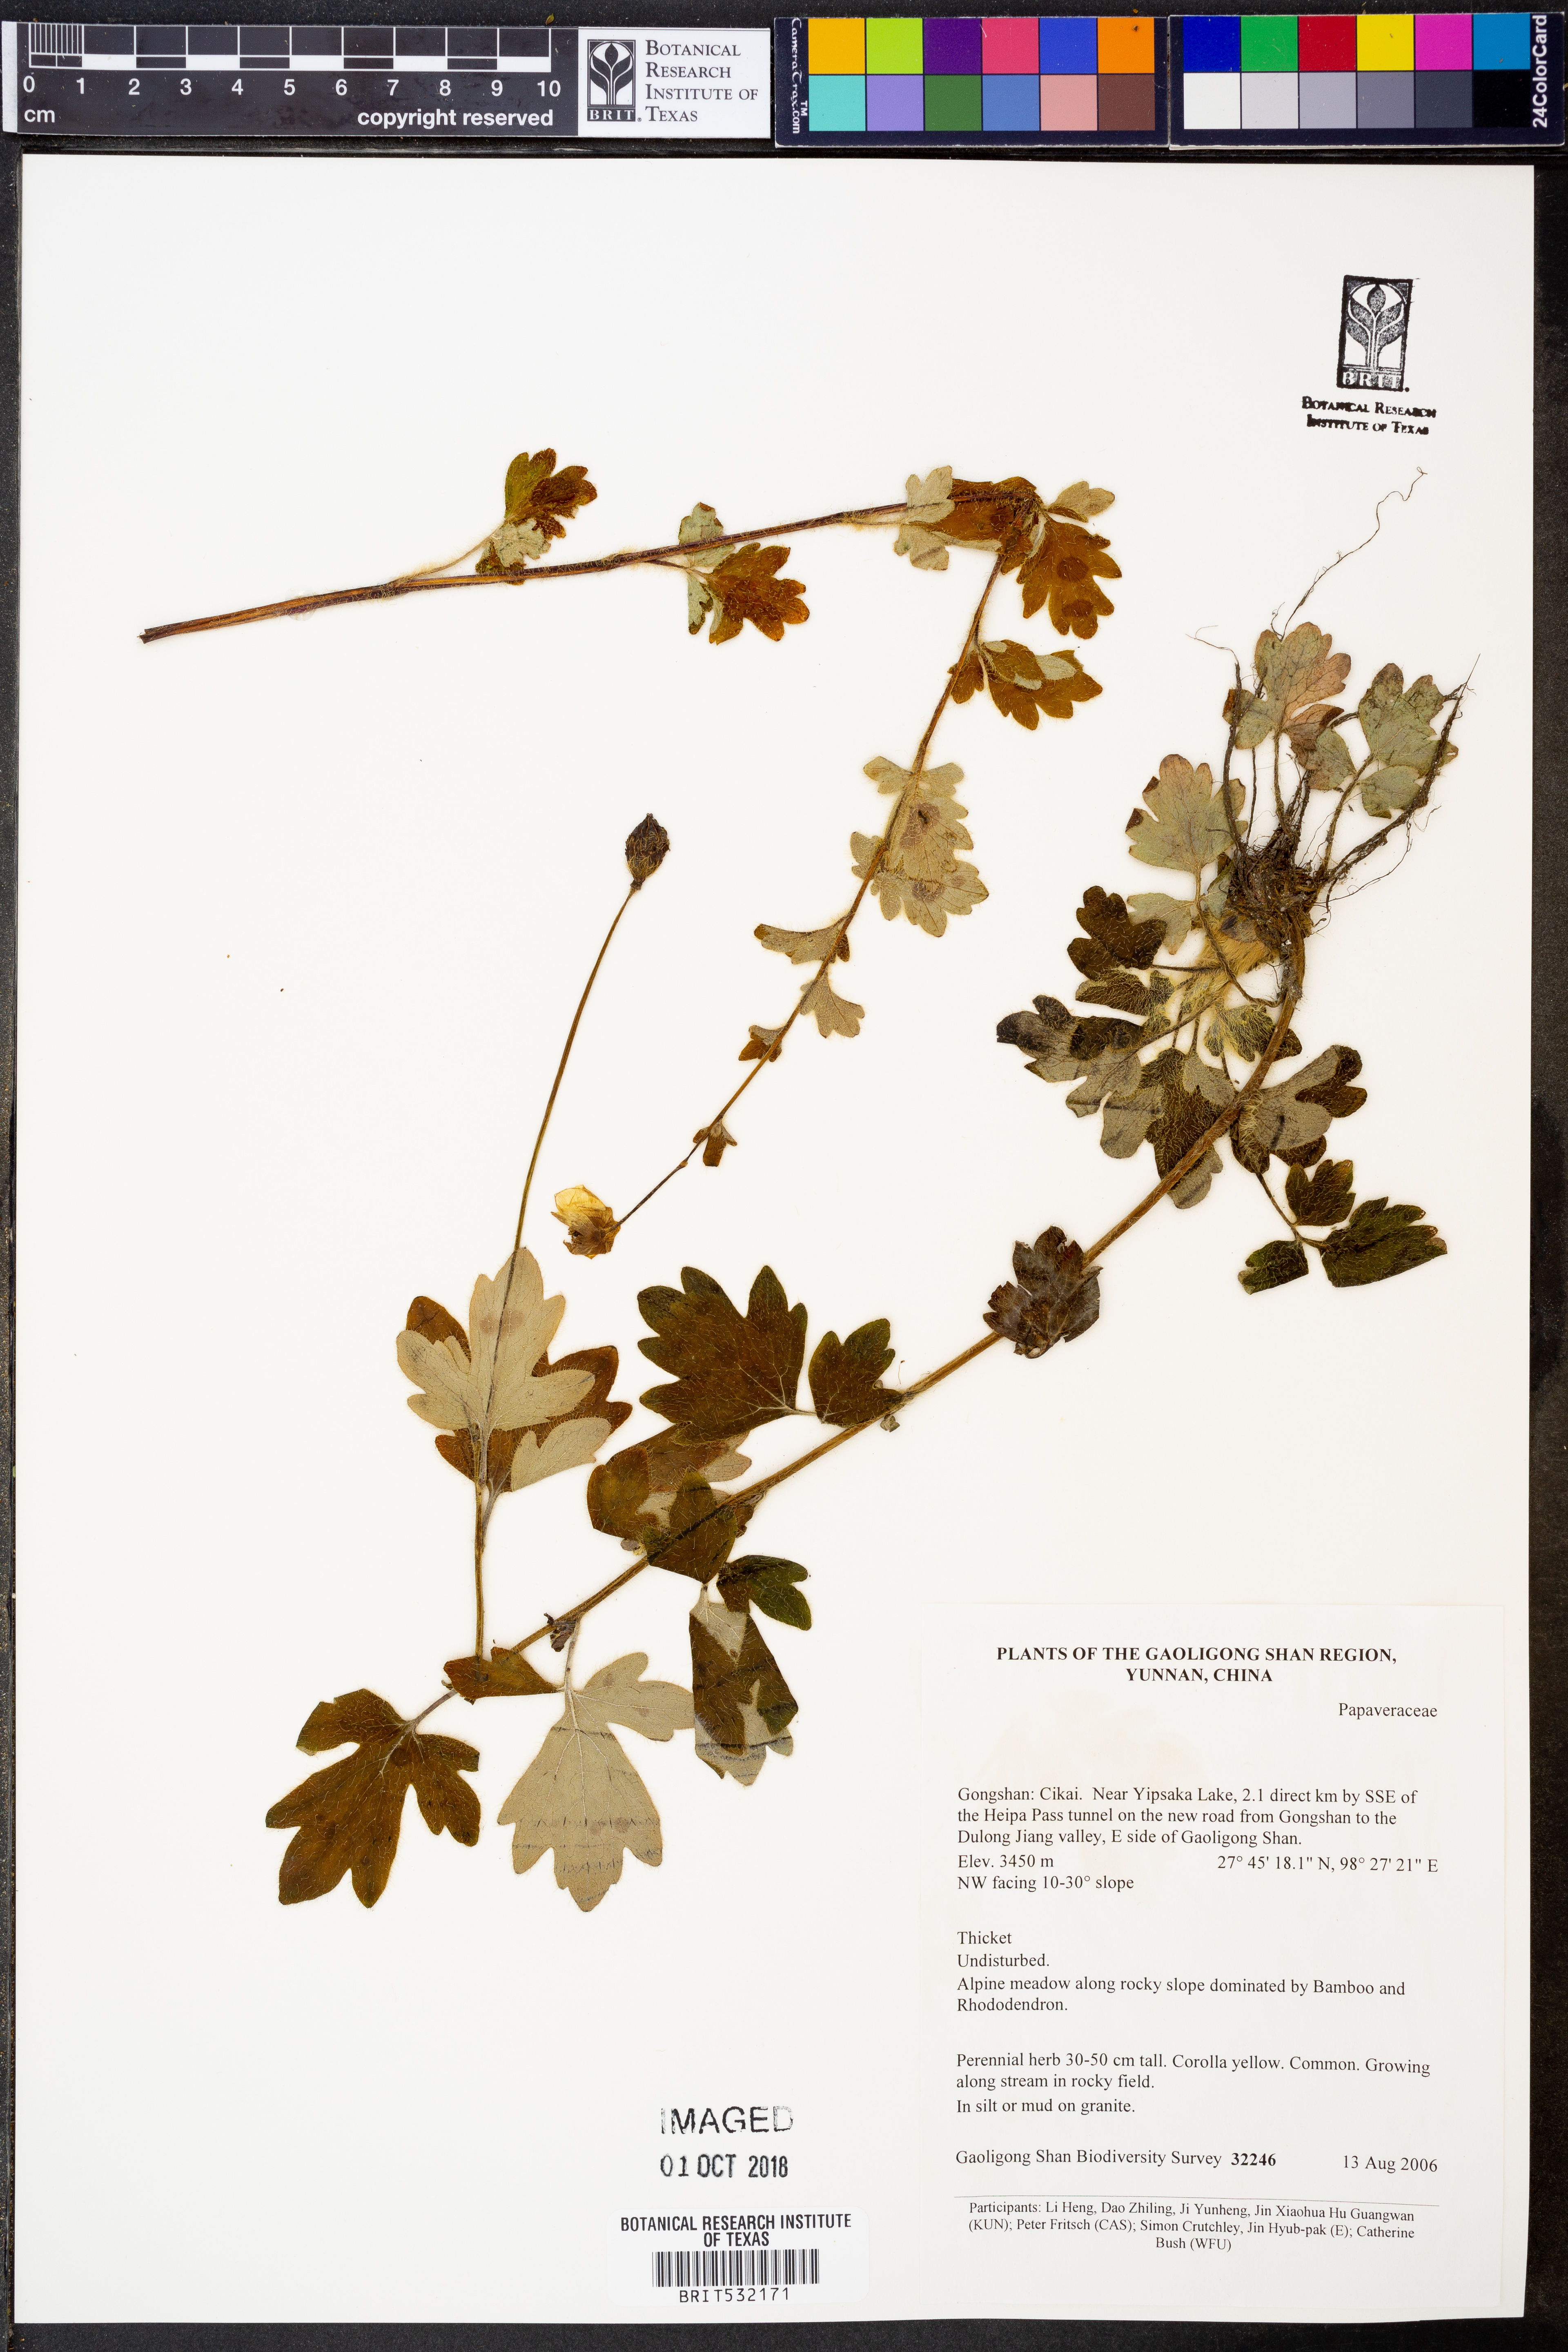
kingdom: Plantae
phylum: Tracheophyta
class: Magnoliopsida
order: Ranunculales
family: Papaveraceae
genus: Meconopsis
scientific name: Meconopsis
